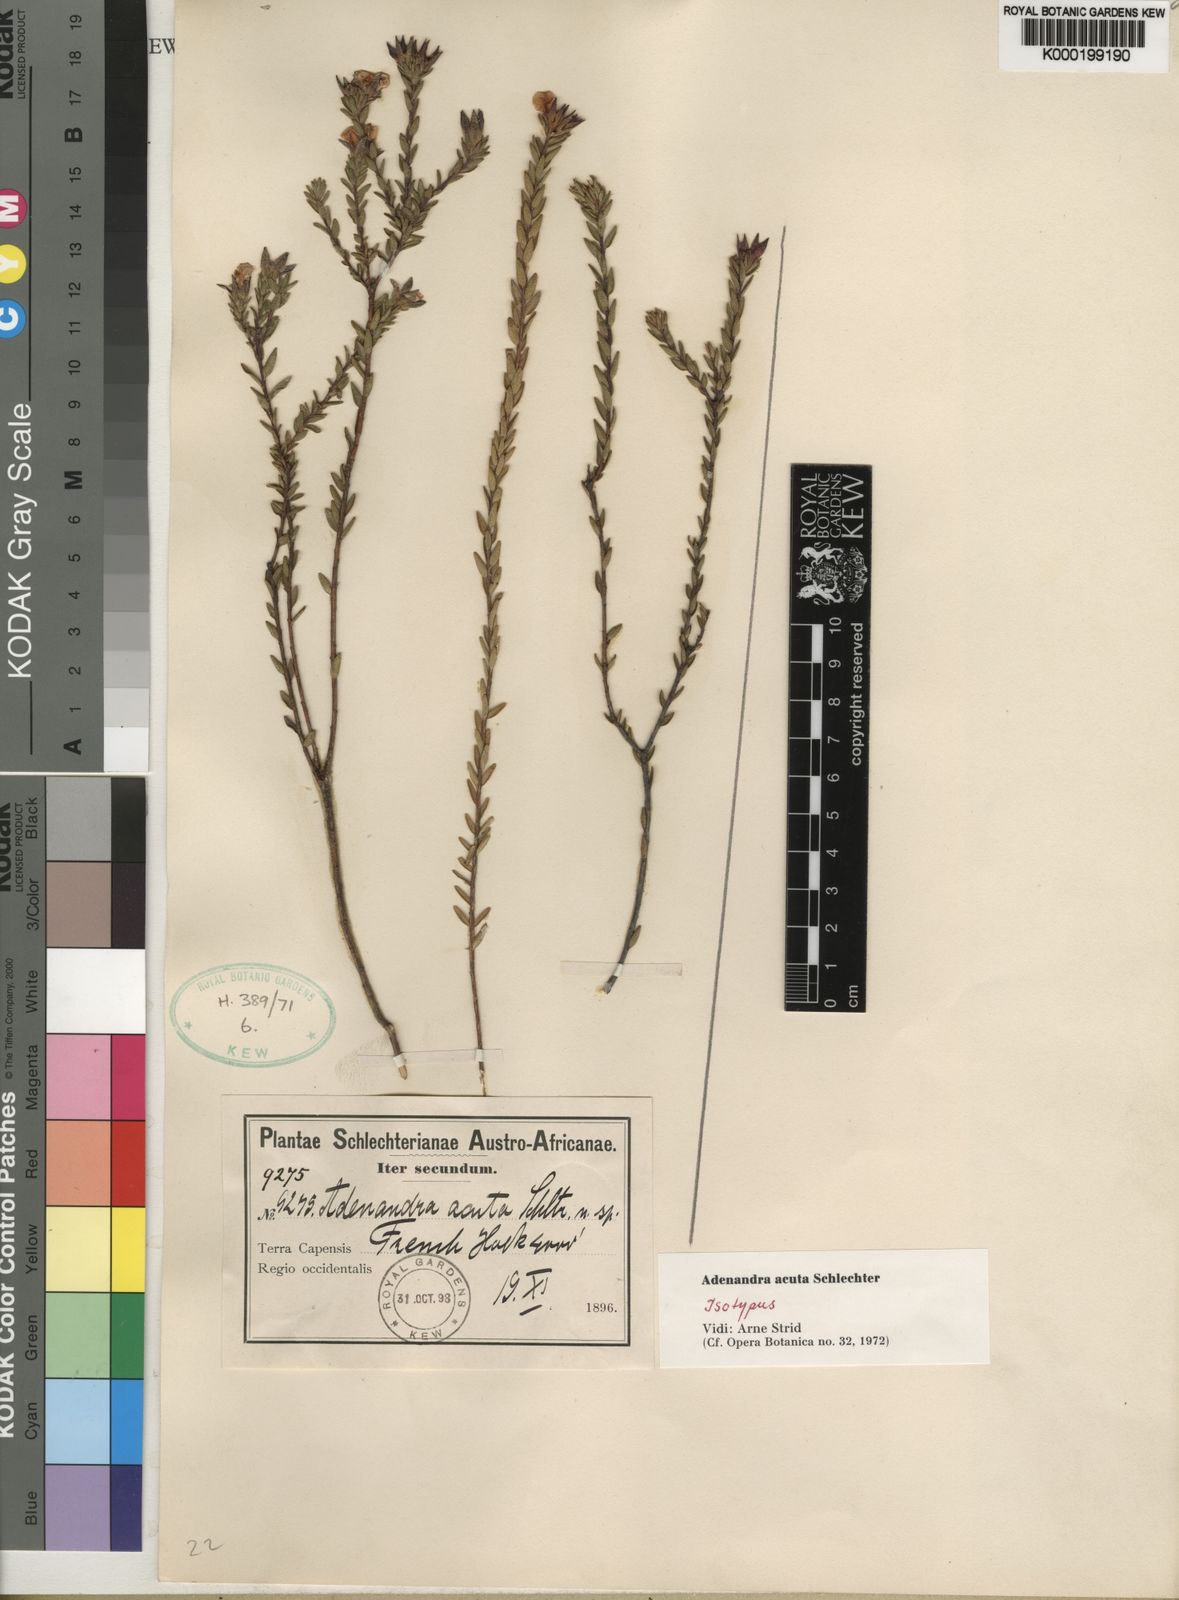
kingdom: Plantae
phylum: Tracheophyta
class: Magnoliopsida
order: Sapindales
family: Rutaceae
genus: Adenandra
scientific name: Adenandra acuta
